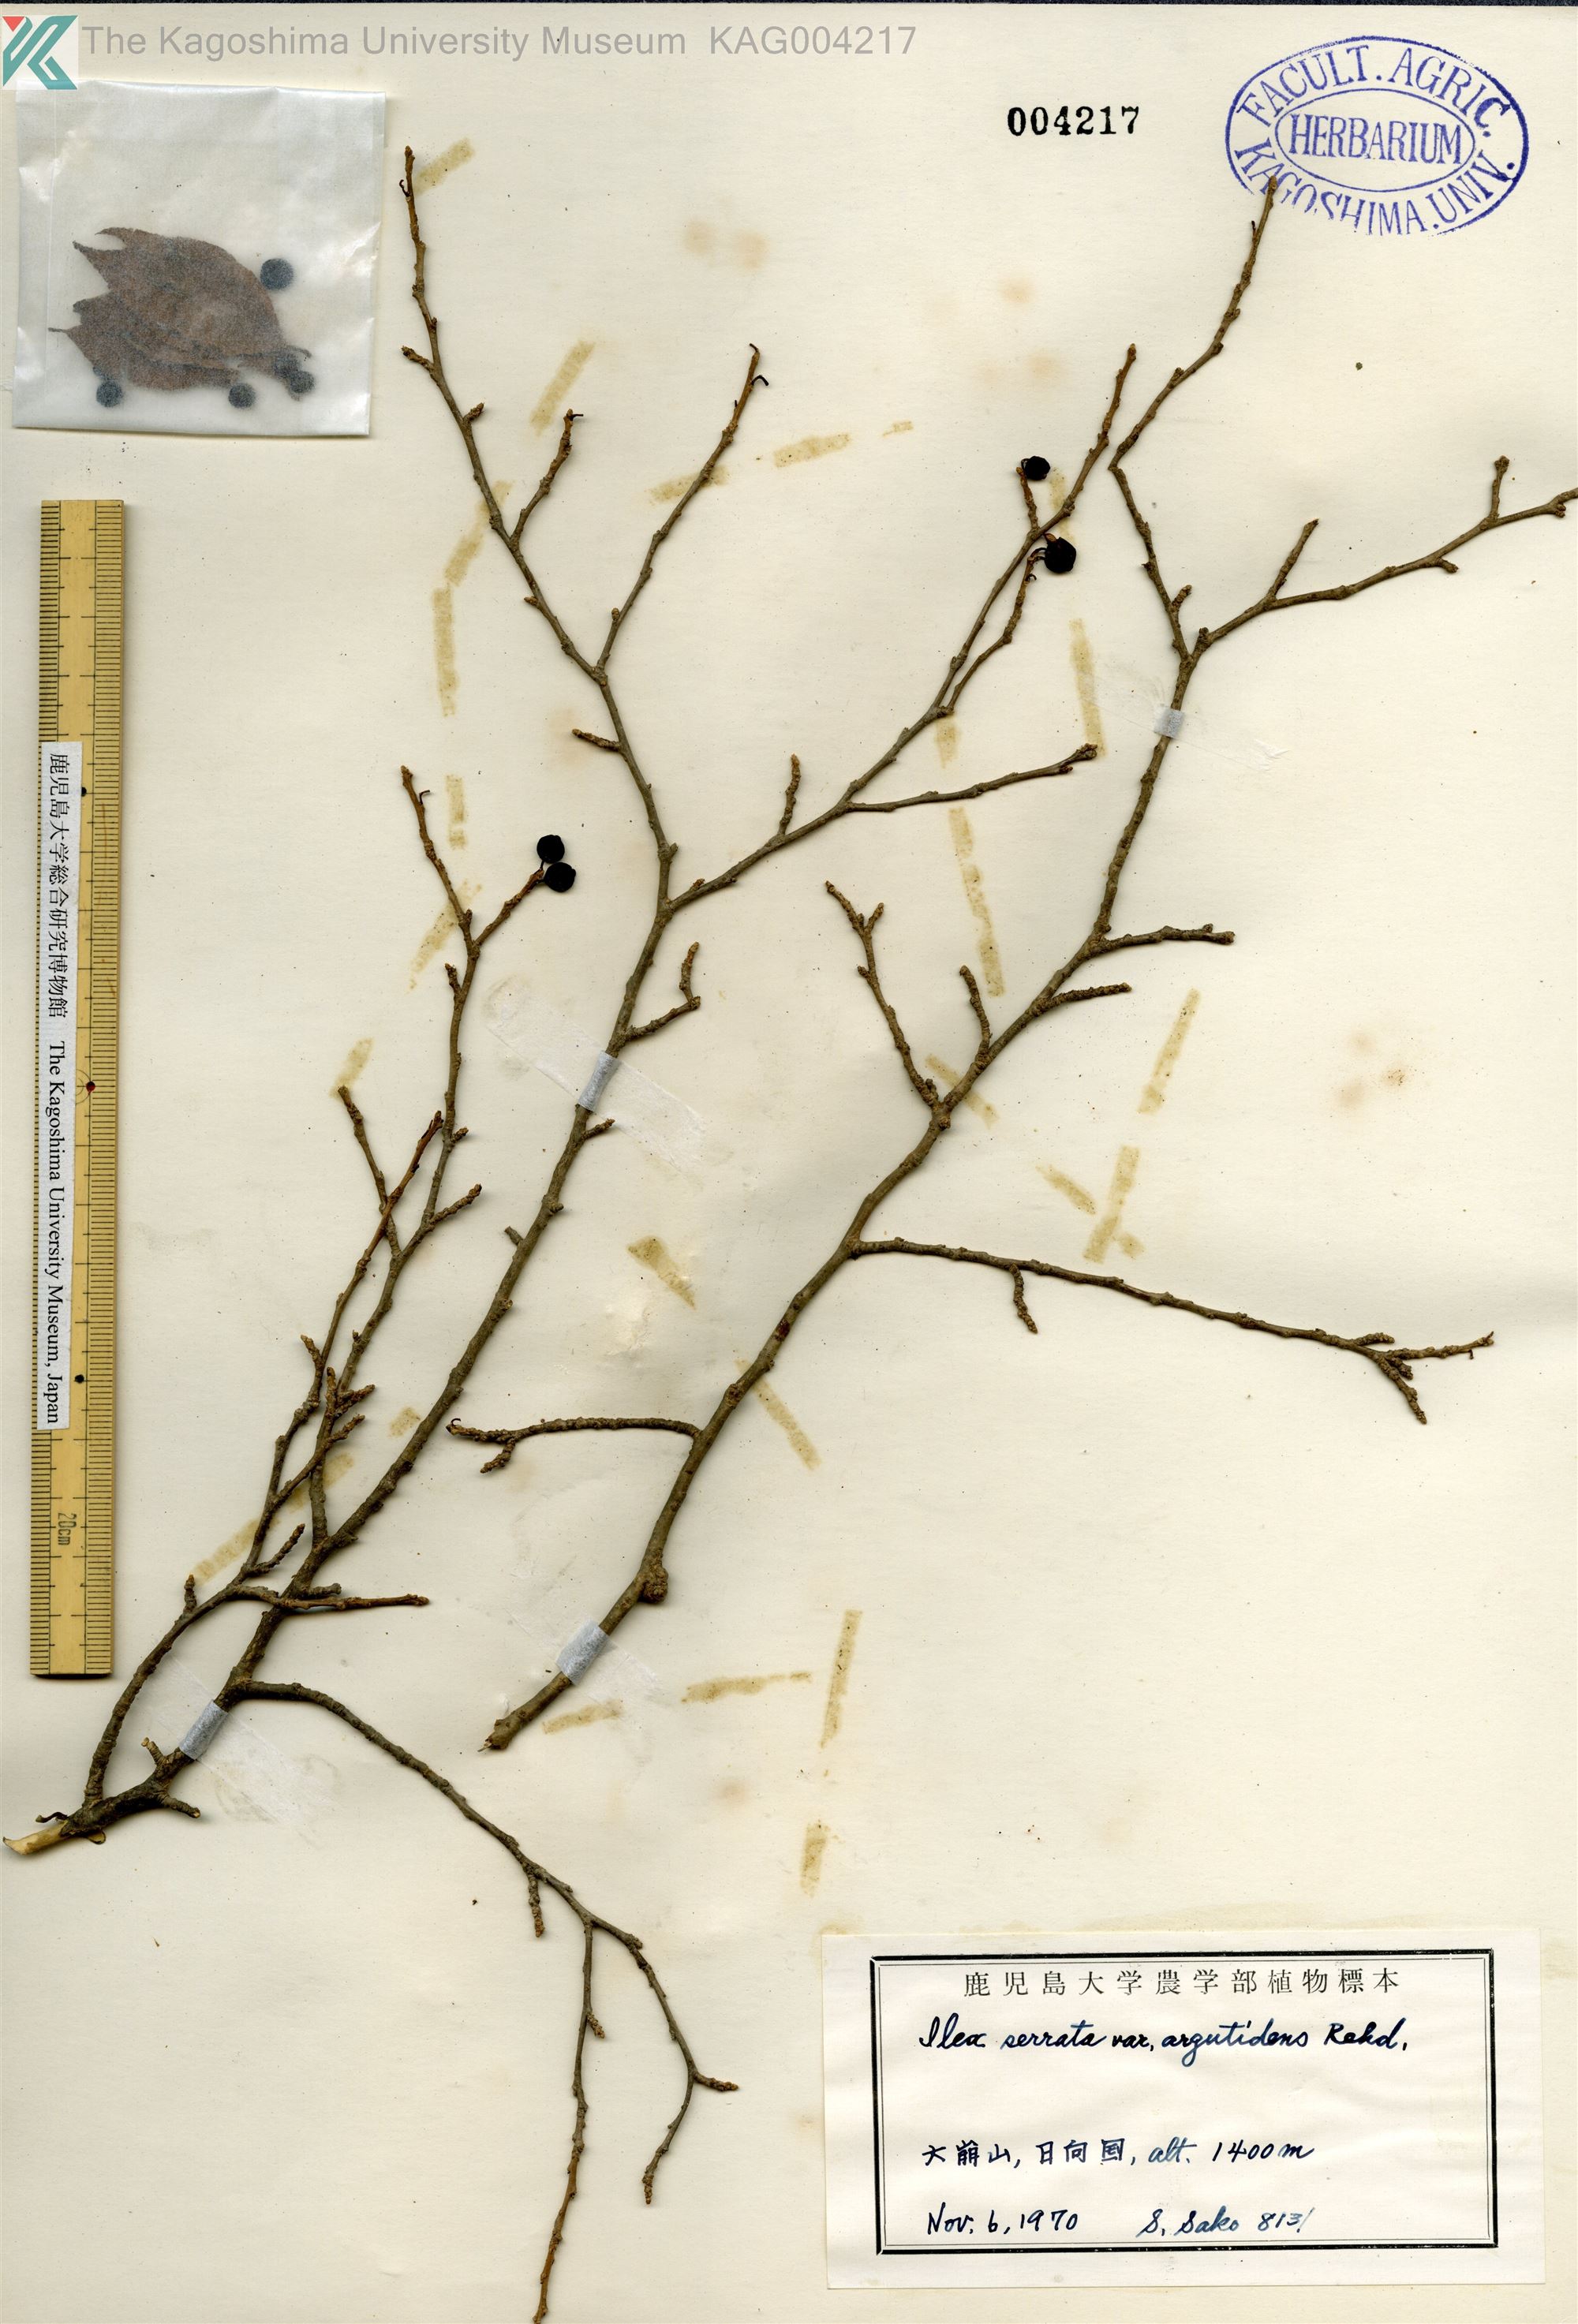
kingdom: Plantae
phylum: Tracheophyta
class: Magnoliopsida
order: Aquifoliales
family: Aquifoliaceae
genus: Ilex
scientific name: Ilex serrata
